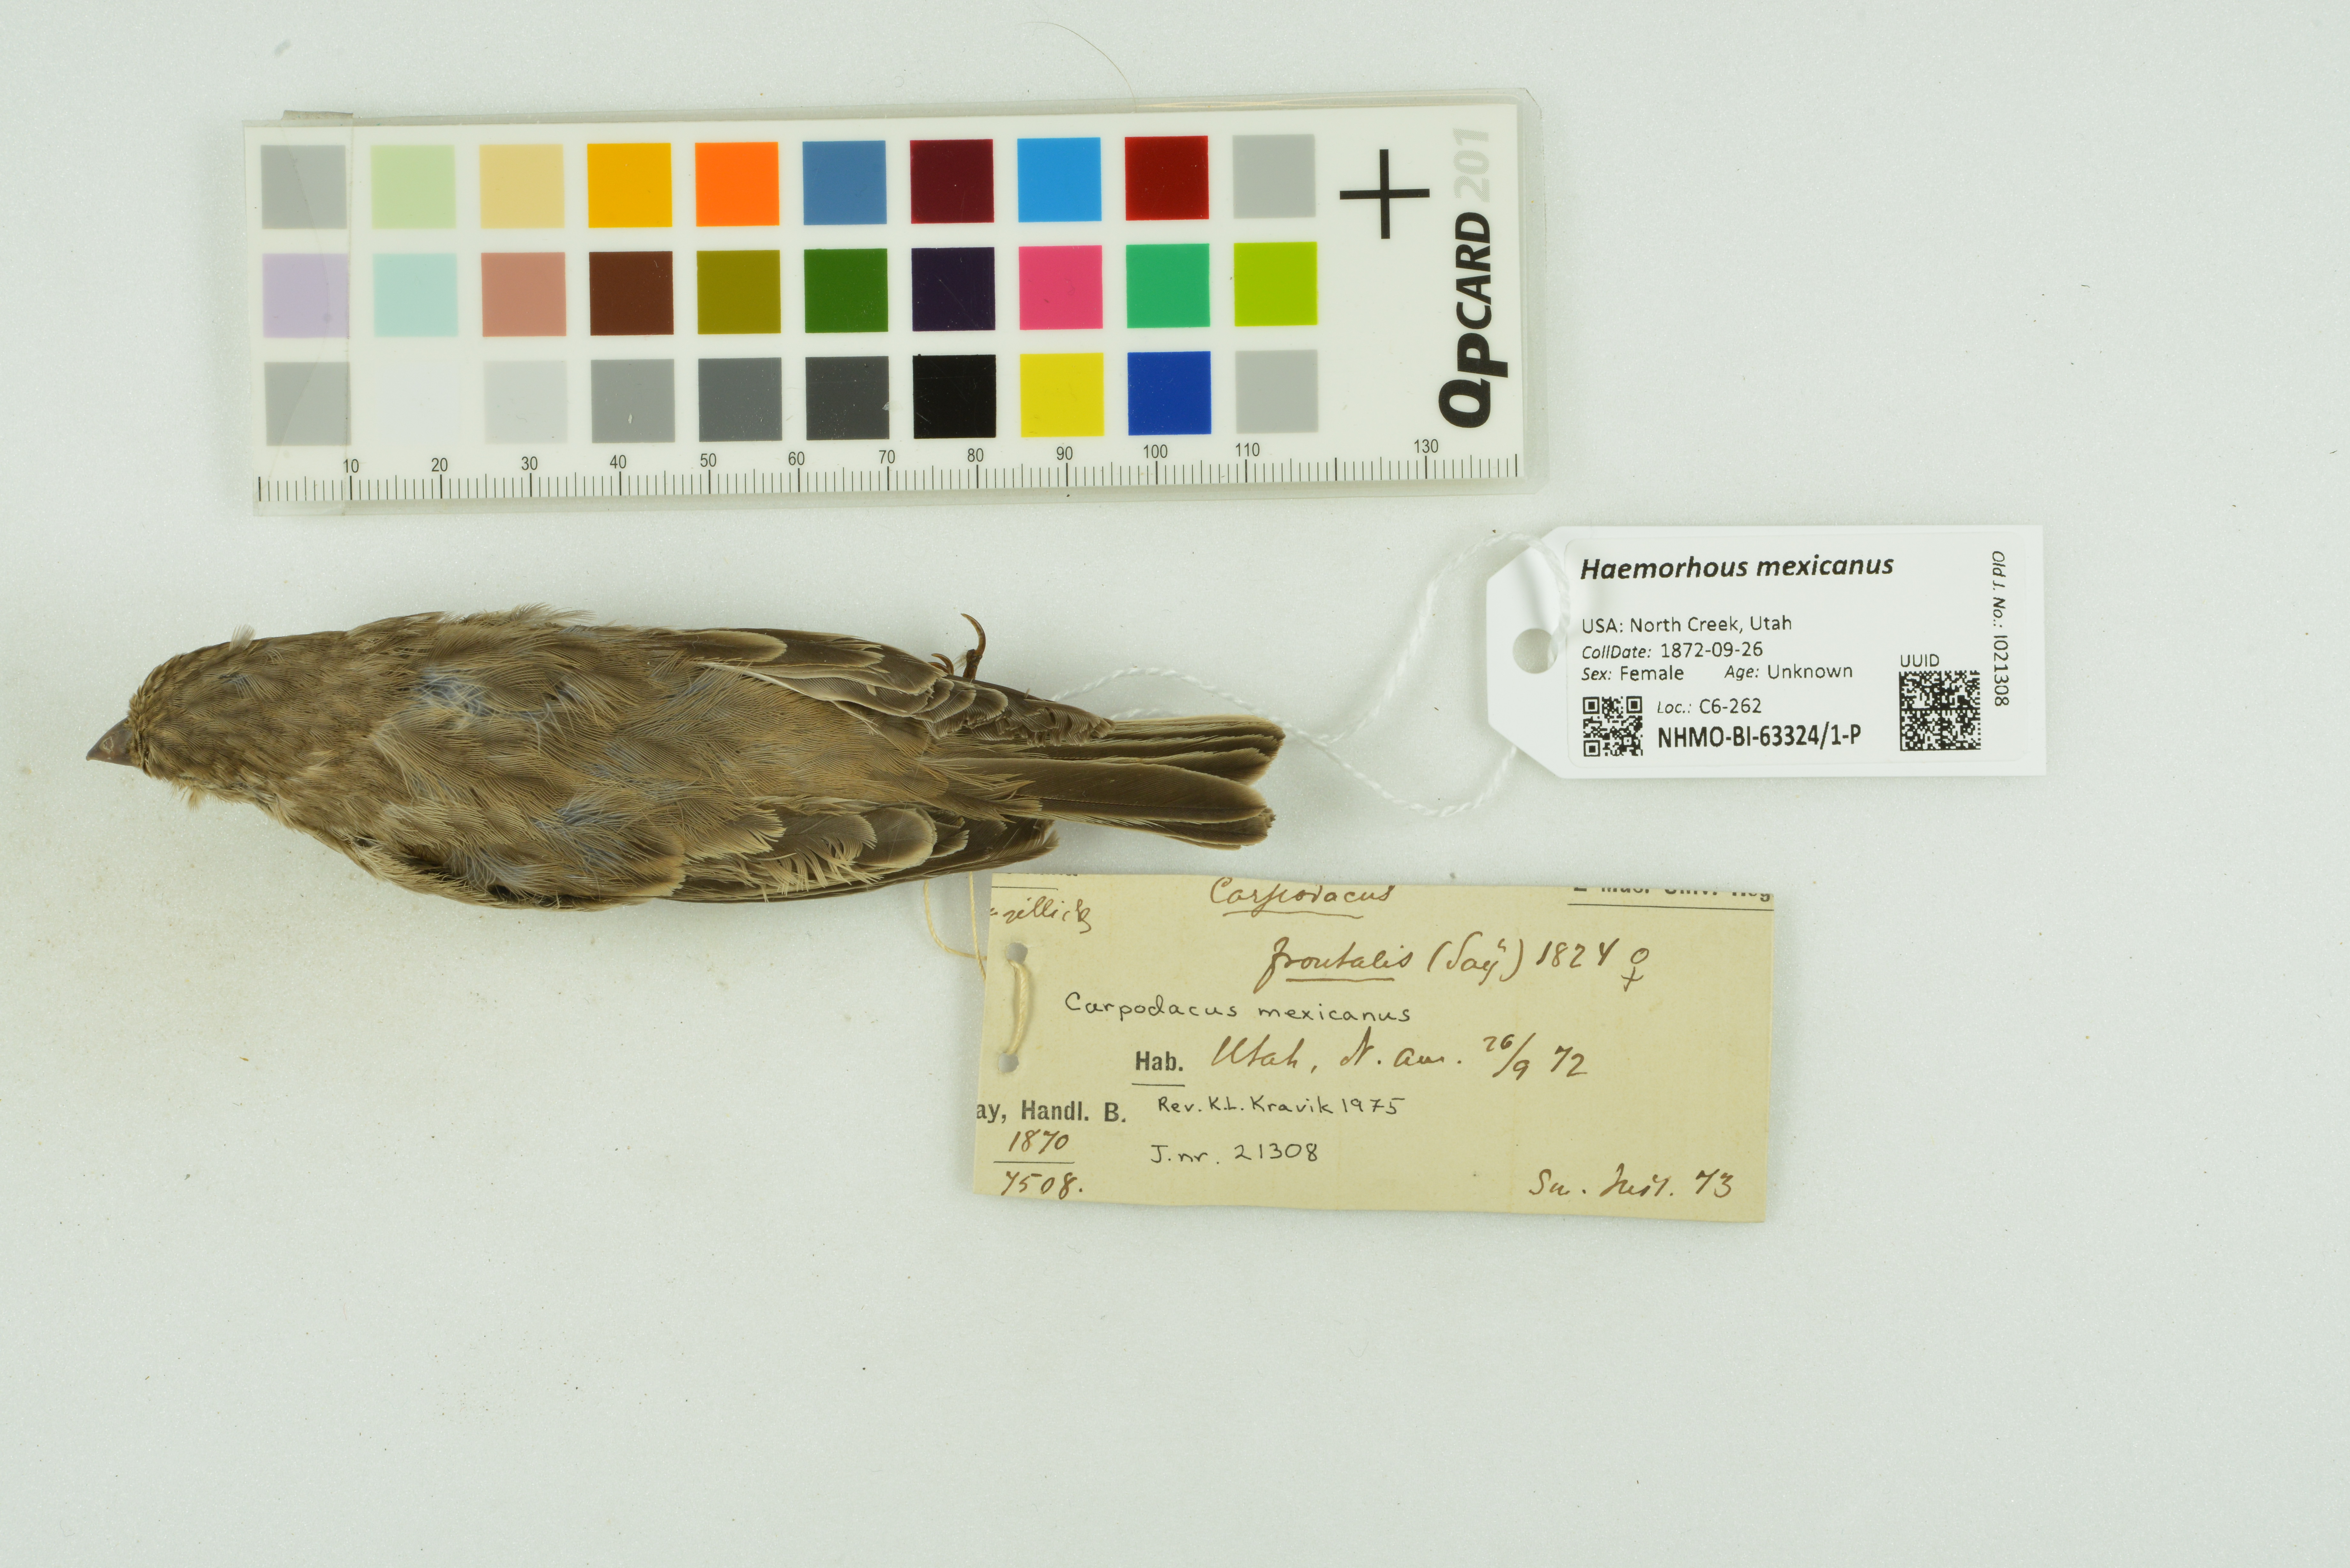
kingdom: Animalia
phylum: Chordata
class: Aves
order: Passeriformes
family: Fringillidae
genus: Haemorhous
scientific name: Haemorhous mexicanus
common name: House finch
